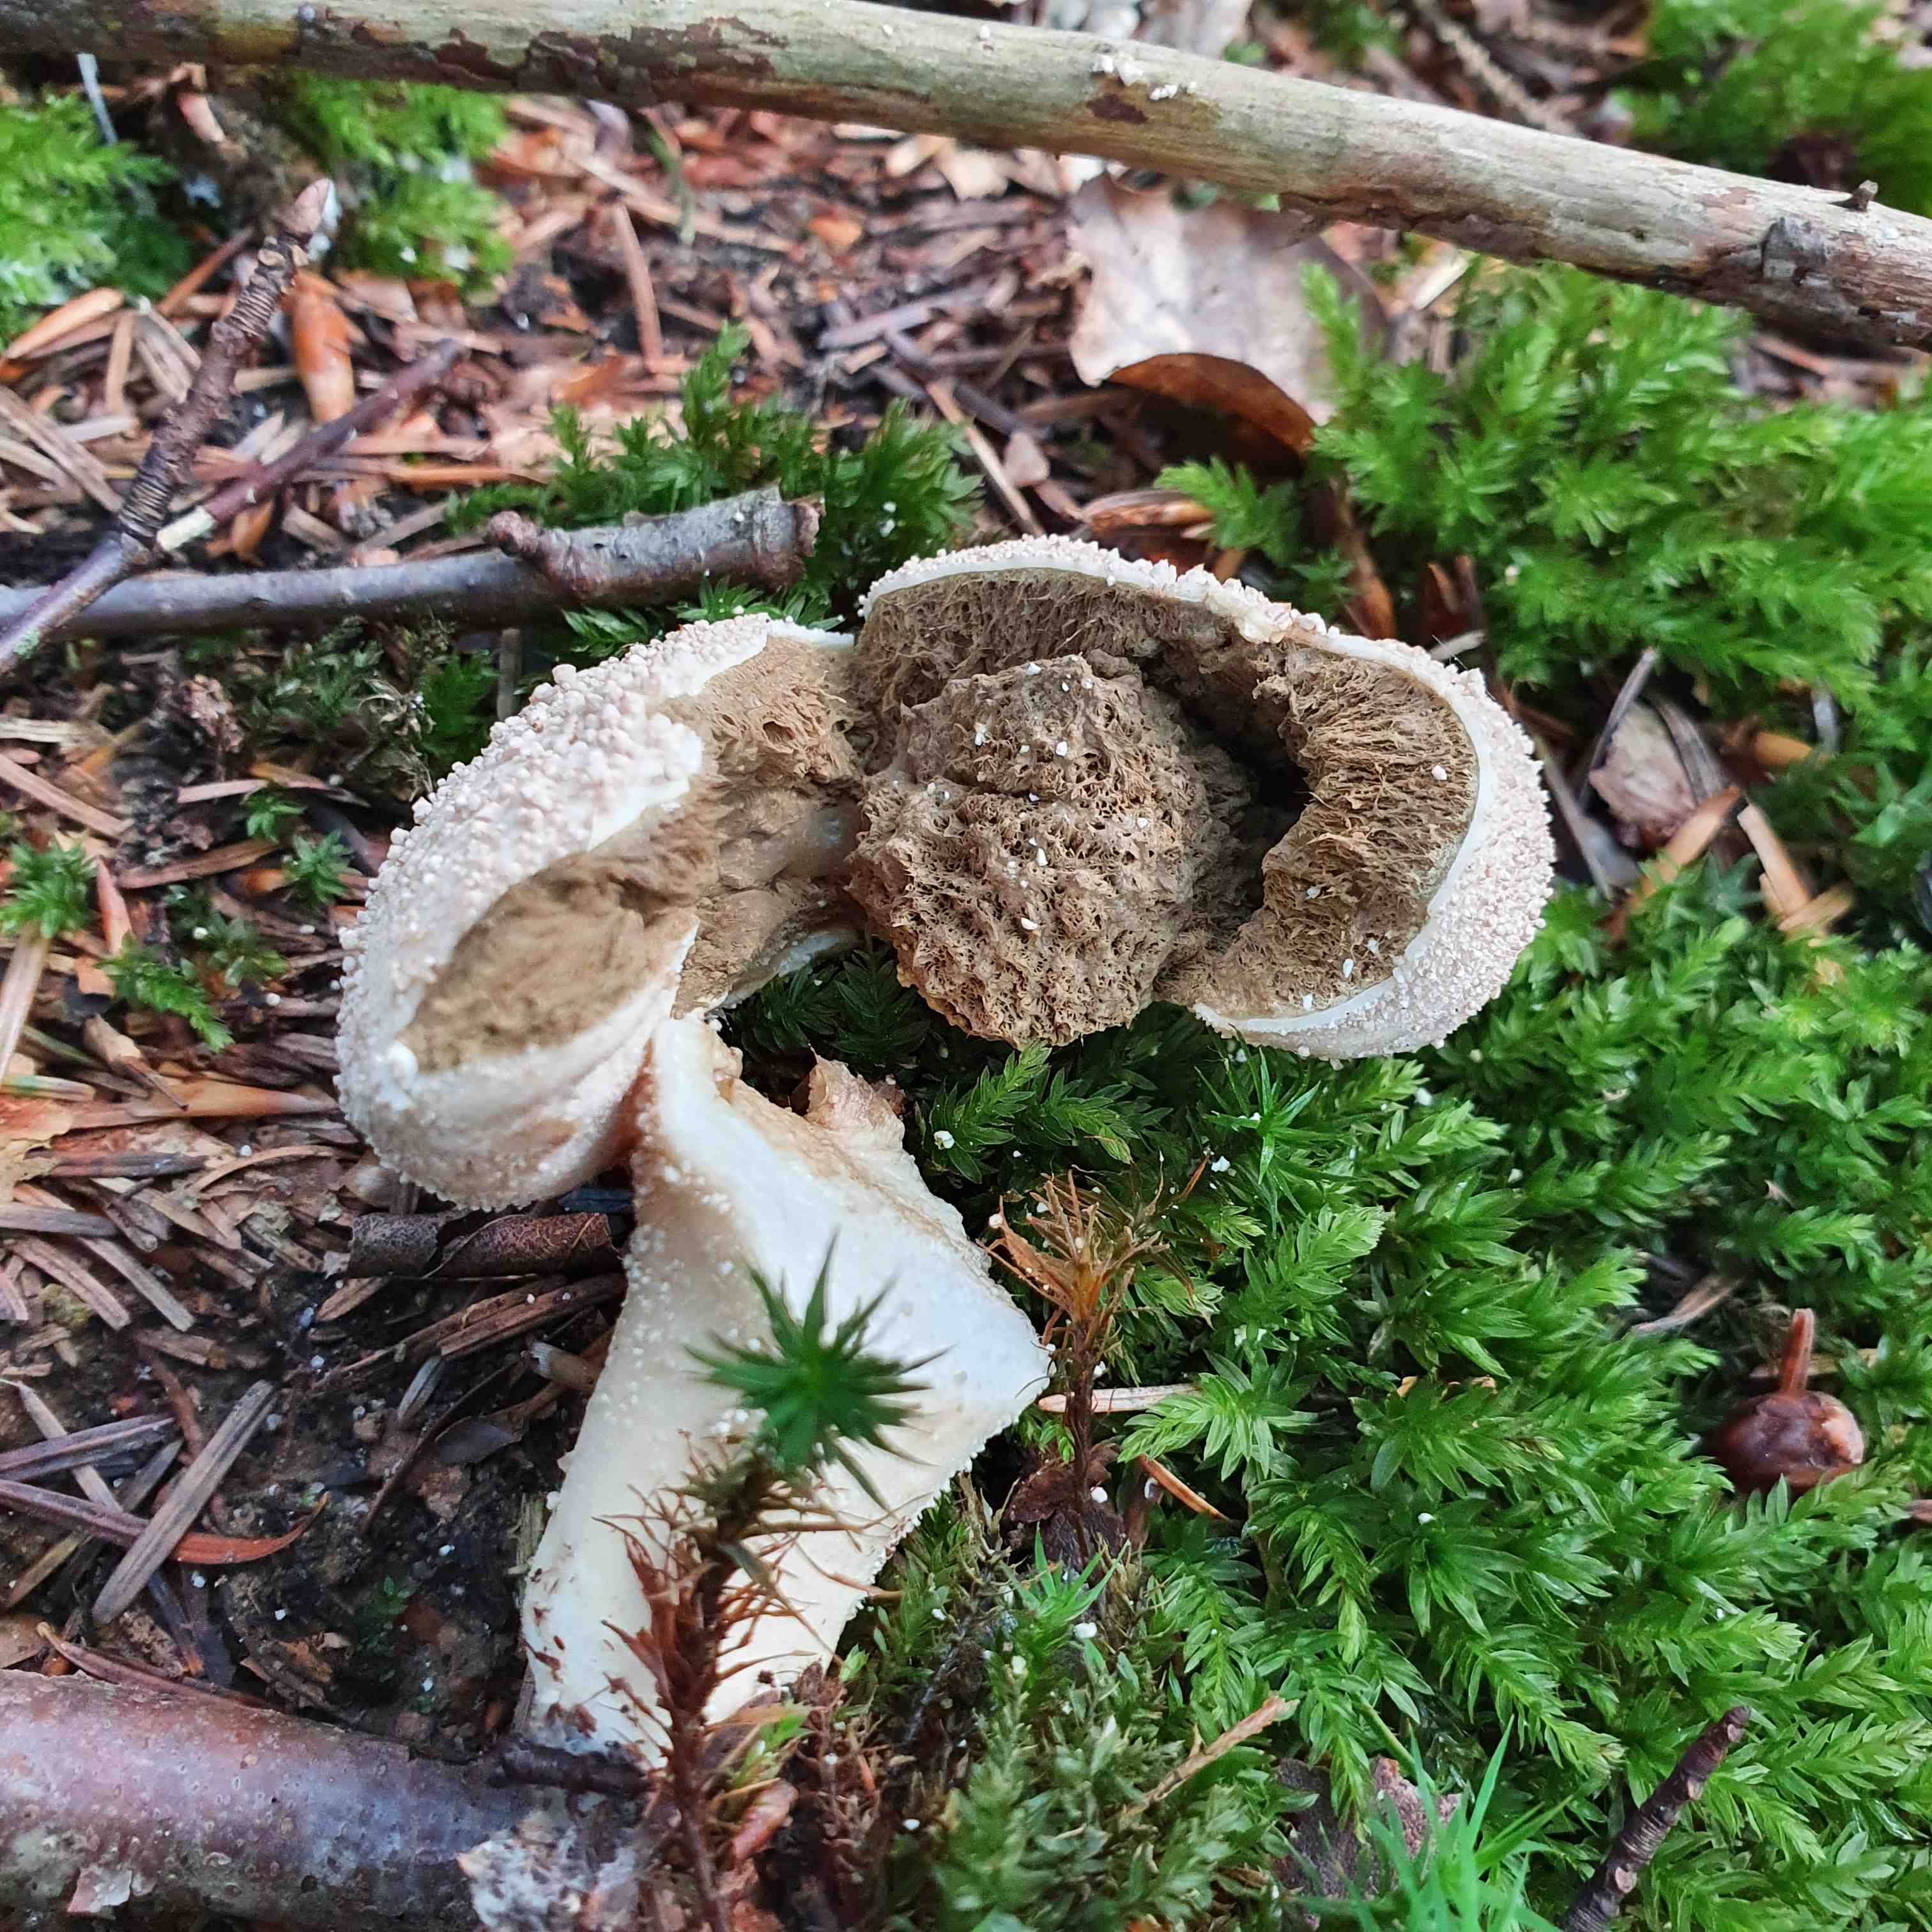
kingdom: Fungi
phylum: Basidiomycota
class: Agaricomycetes
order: Agaricales
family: Lycoperdaceae
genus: Lycoperdon
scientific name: Lycoperdon perlatum
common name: krystal-støvbold
